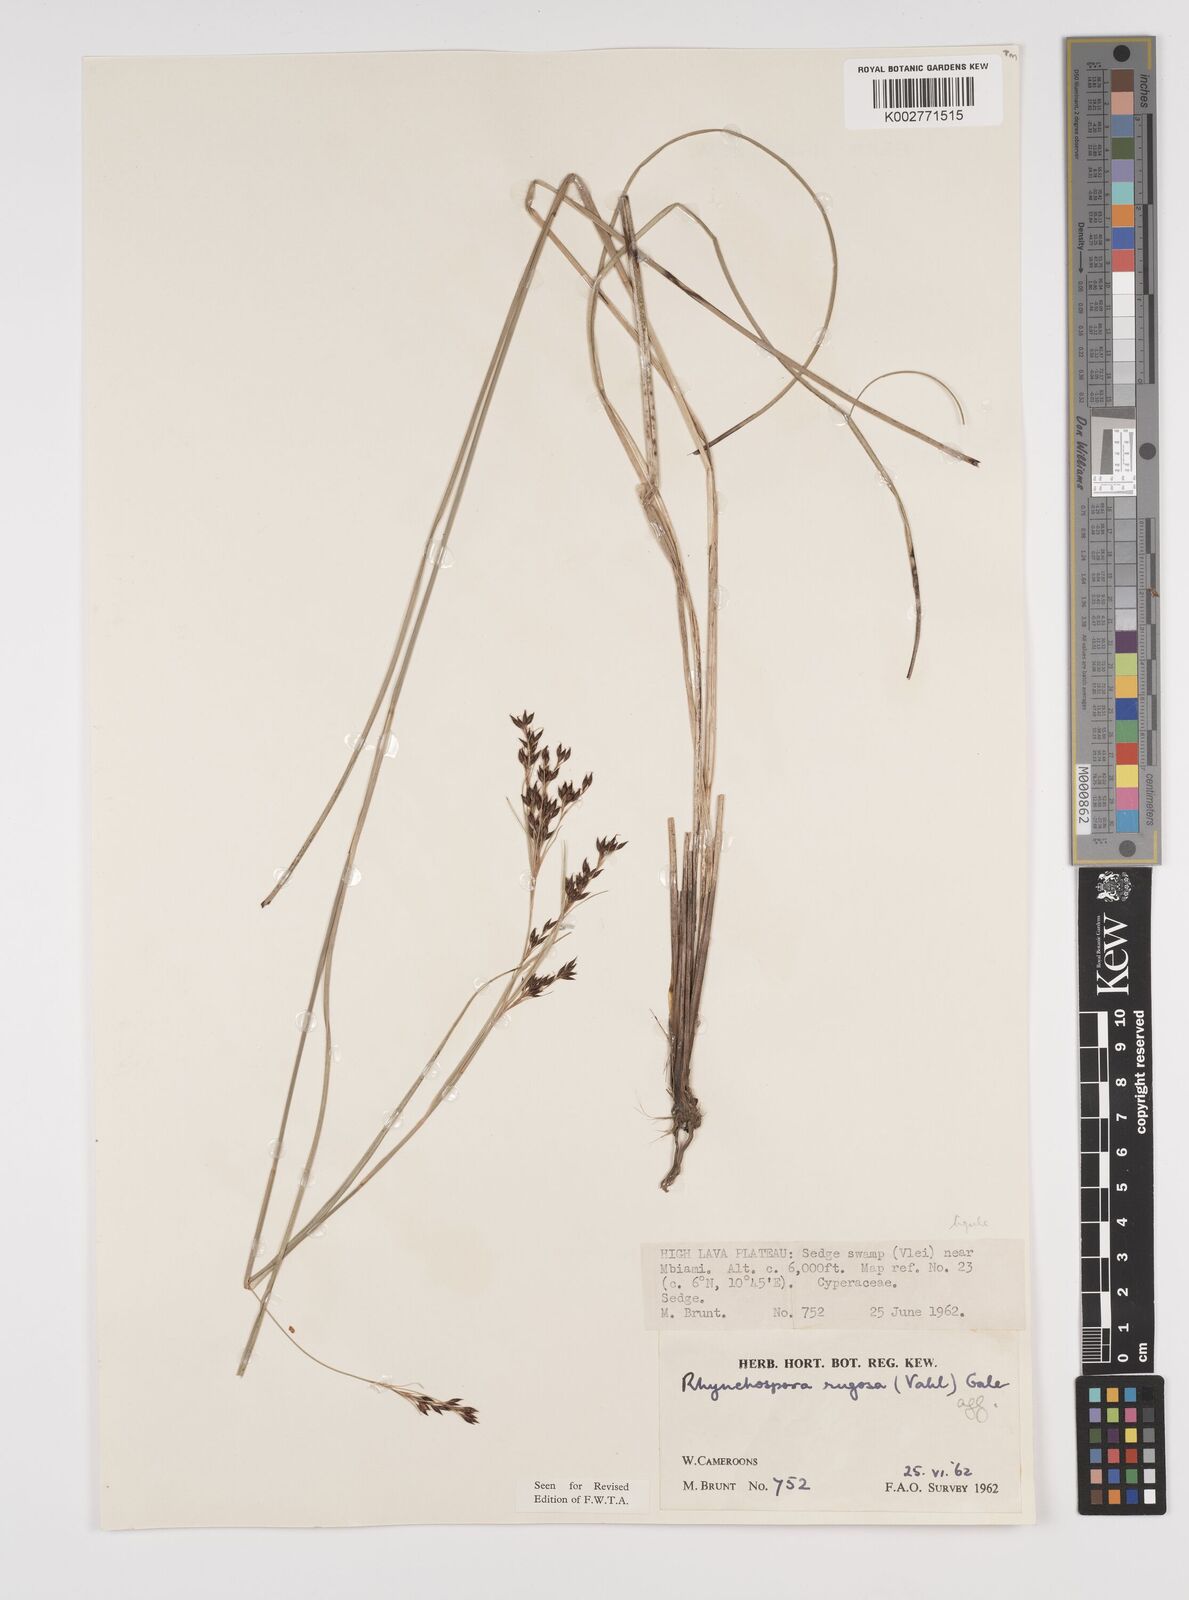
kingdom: Plantae
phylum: Tracheophyta
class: Liliopsida
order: Poales
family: Cyperaceae
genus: Rhynchospora
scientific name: Rhynchospora rugosa
